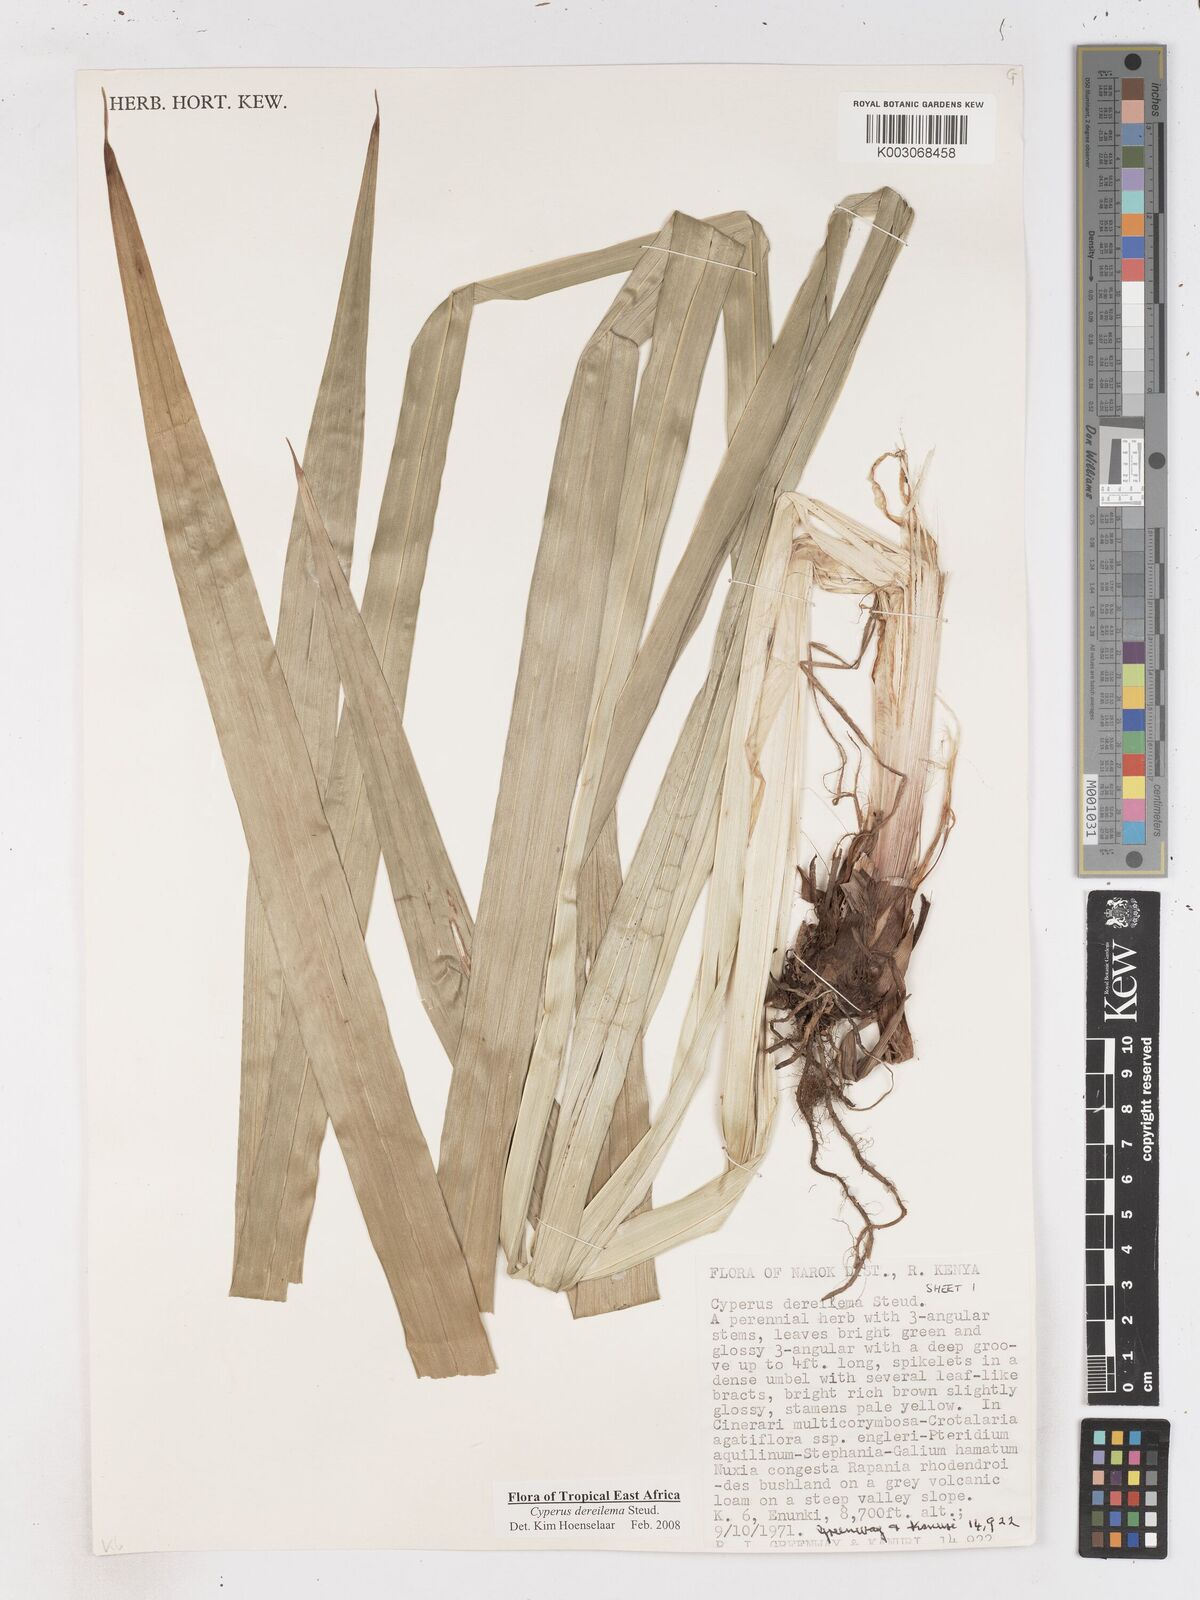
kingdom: Plantae
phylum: Tracheophyta
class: Liliopsida
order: Poales
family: Cyperaceae
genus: Cyperus
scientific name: Cyperus derreilema
